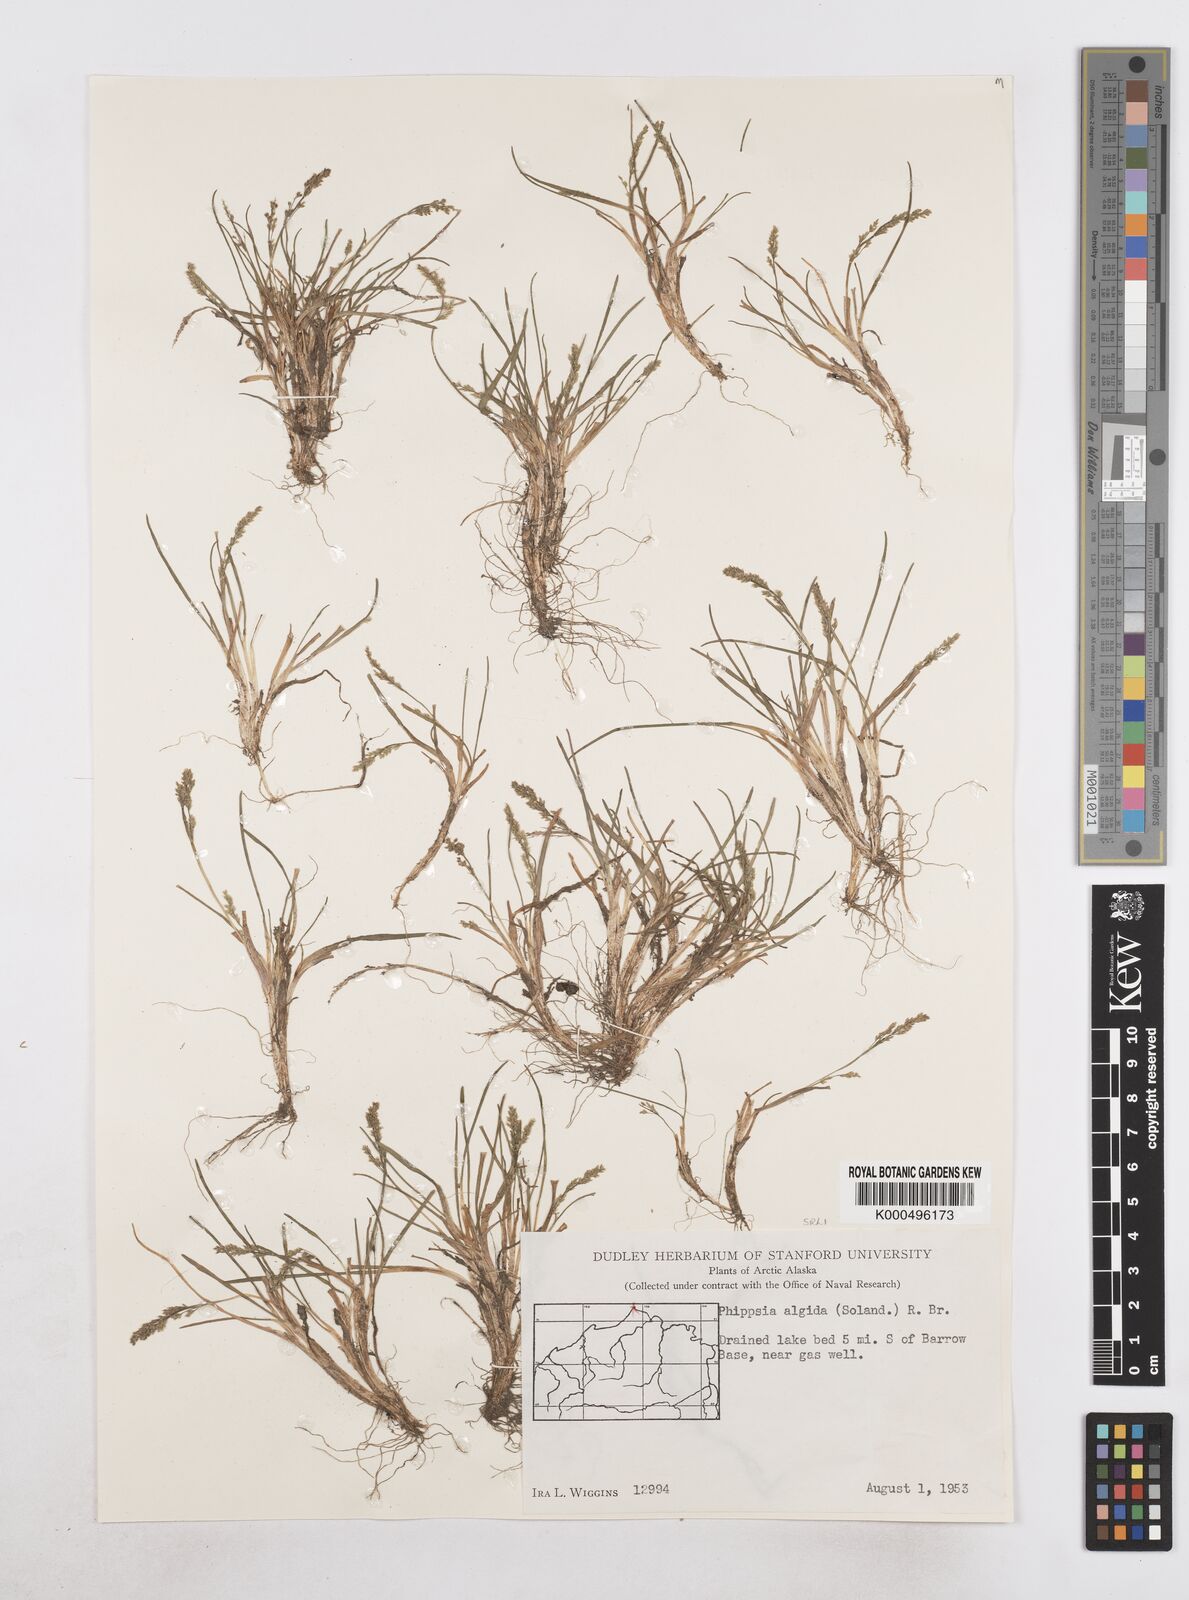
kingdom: Plantae
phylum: Tracheophyta
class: Liliopsida
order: Poales
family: Poaceae
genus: Phippsia
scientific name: Phippsia algida
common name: Ice grass
